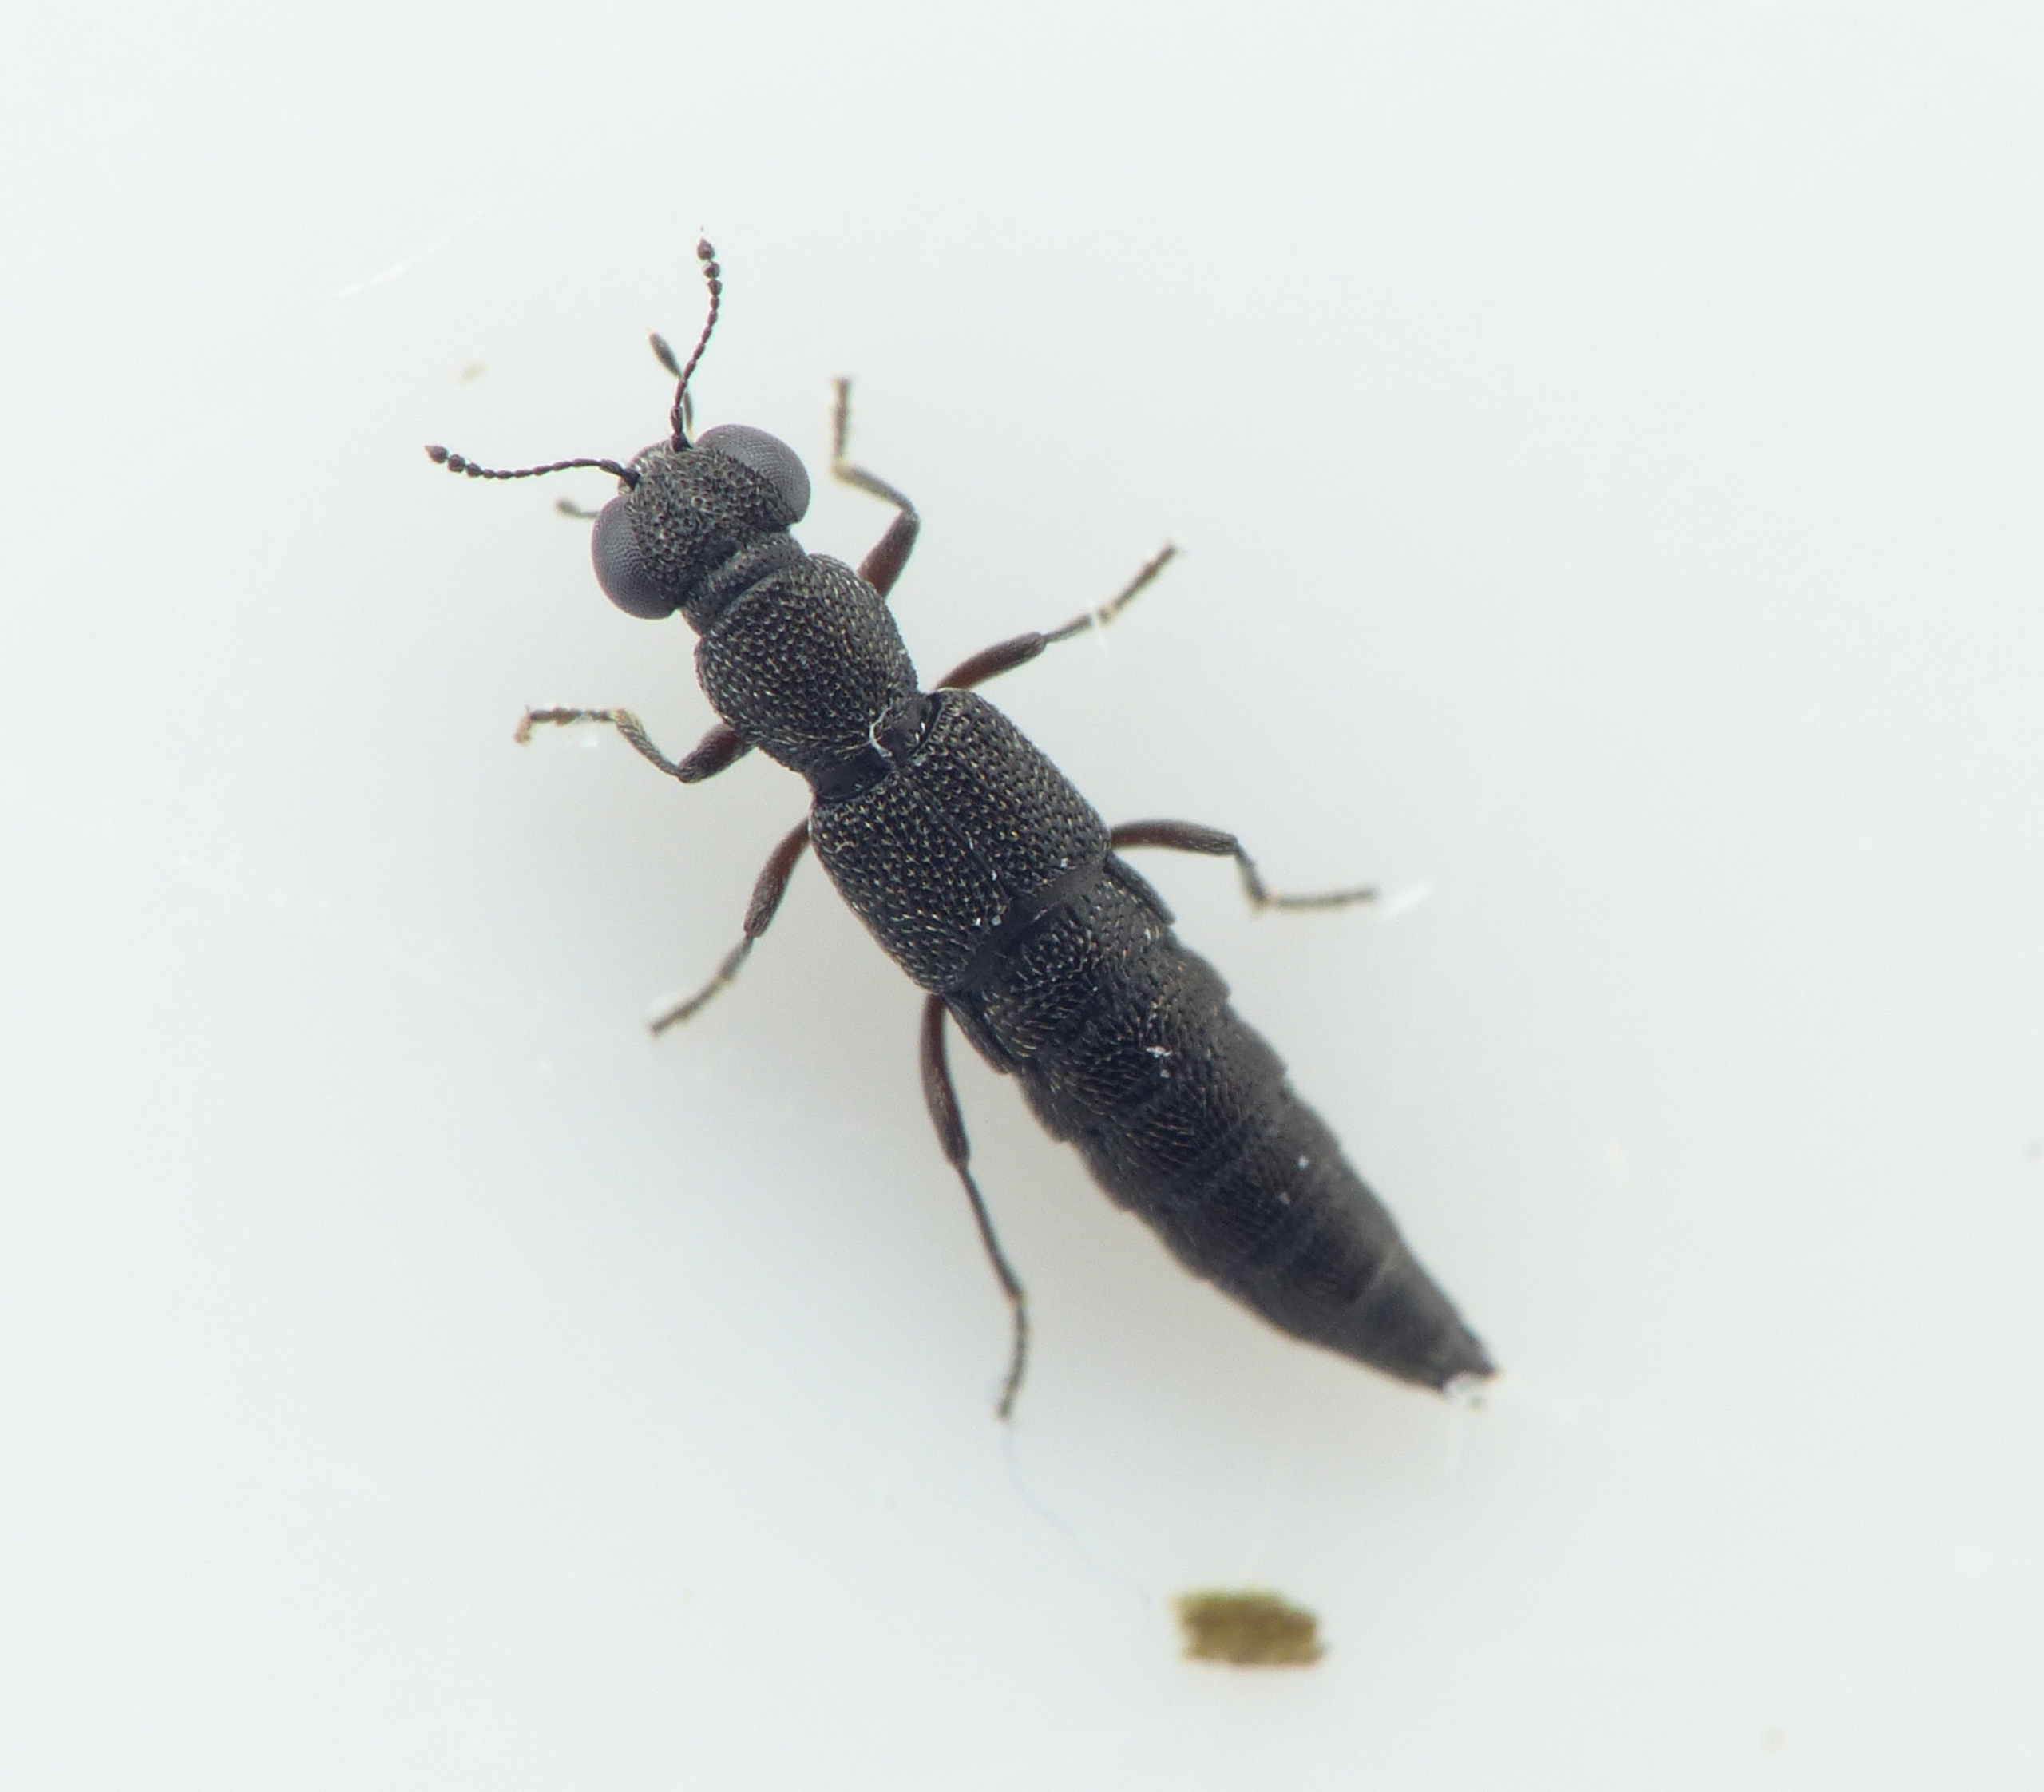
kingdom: Animalia
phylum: Arthropoda
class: Insecta
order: Coleoptera
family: Staphylinidae
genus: Stenus
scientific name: Stenus argus
